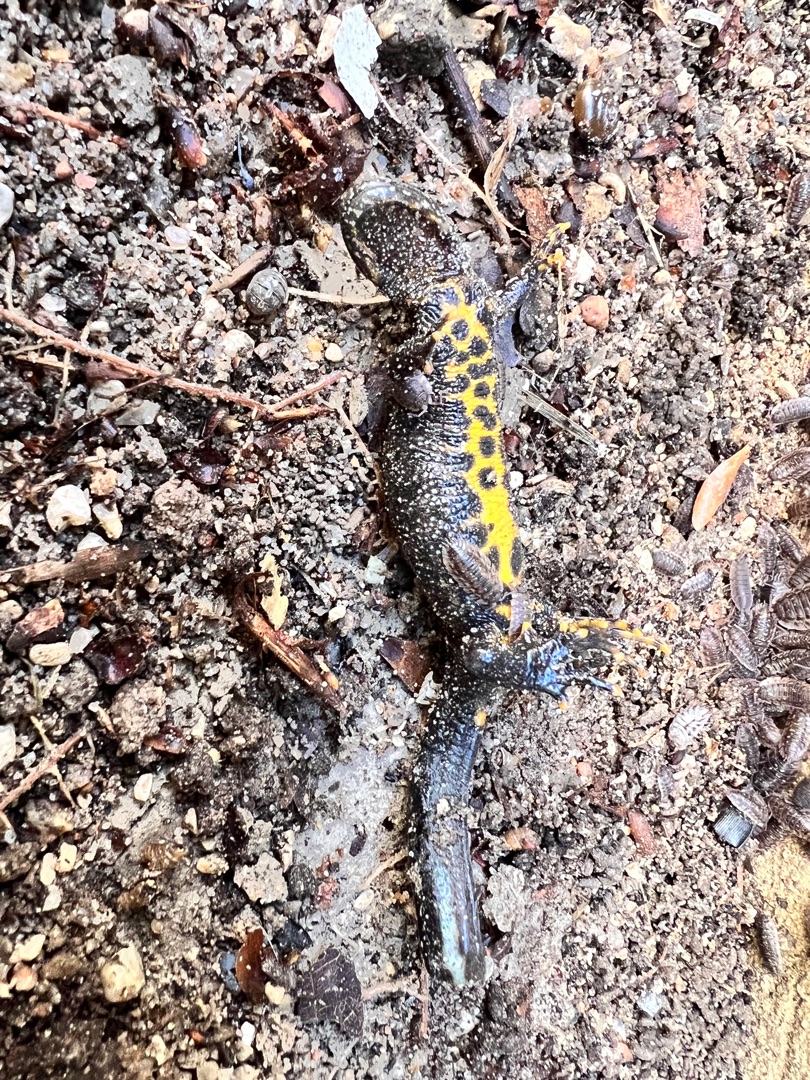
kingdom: Animalia
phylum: Chordata
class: Amphibia
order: Caudata
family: Salamandridae
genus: Triturus
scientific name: Triturus cristatus
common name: Stor vandsalamander
